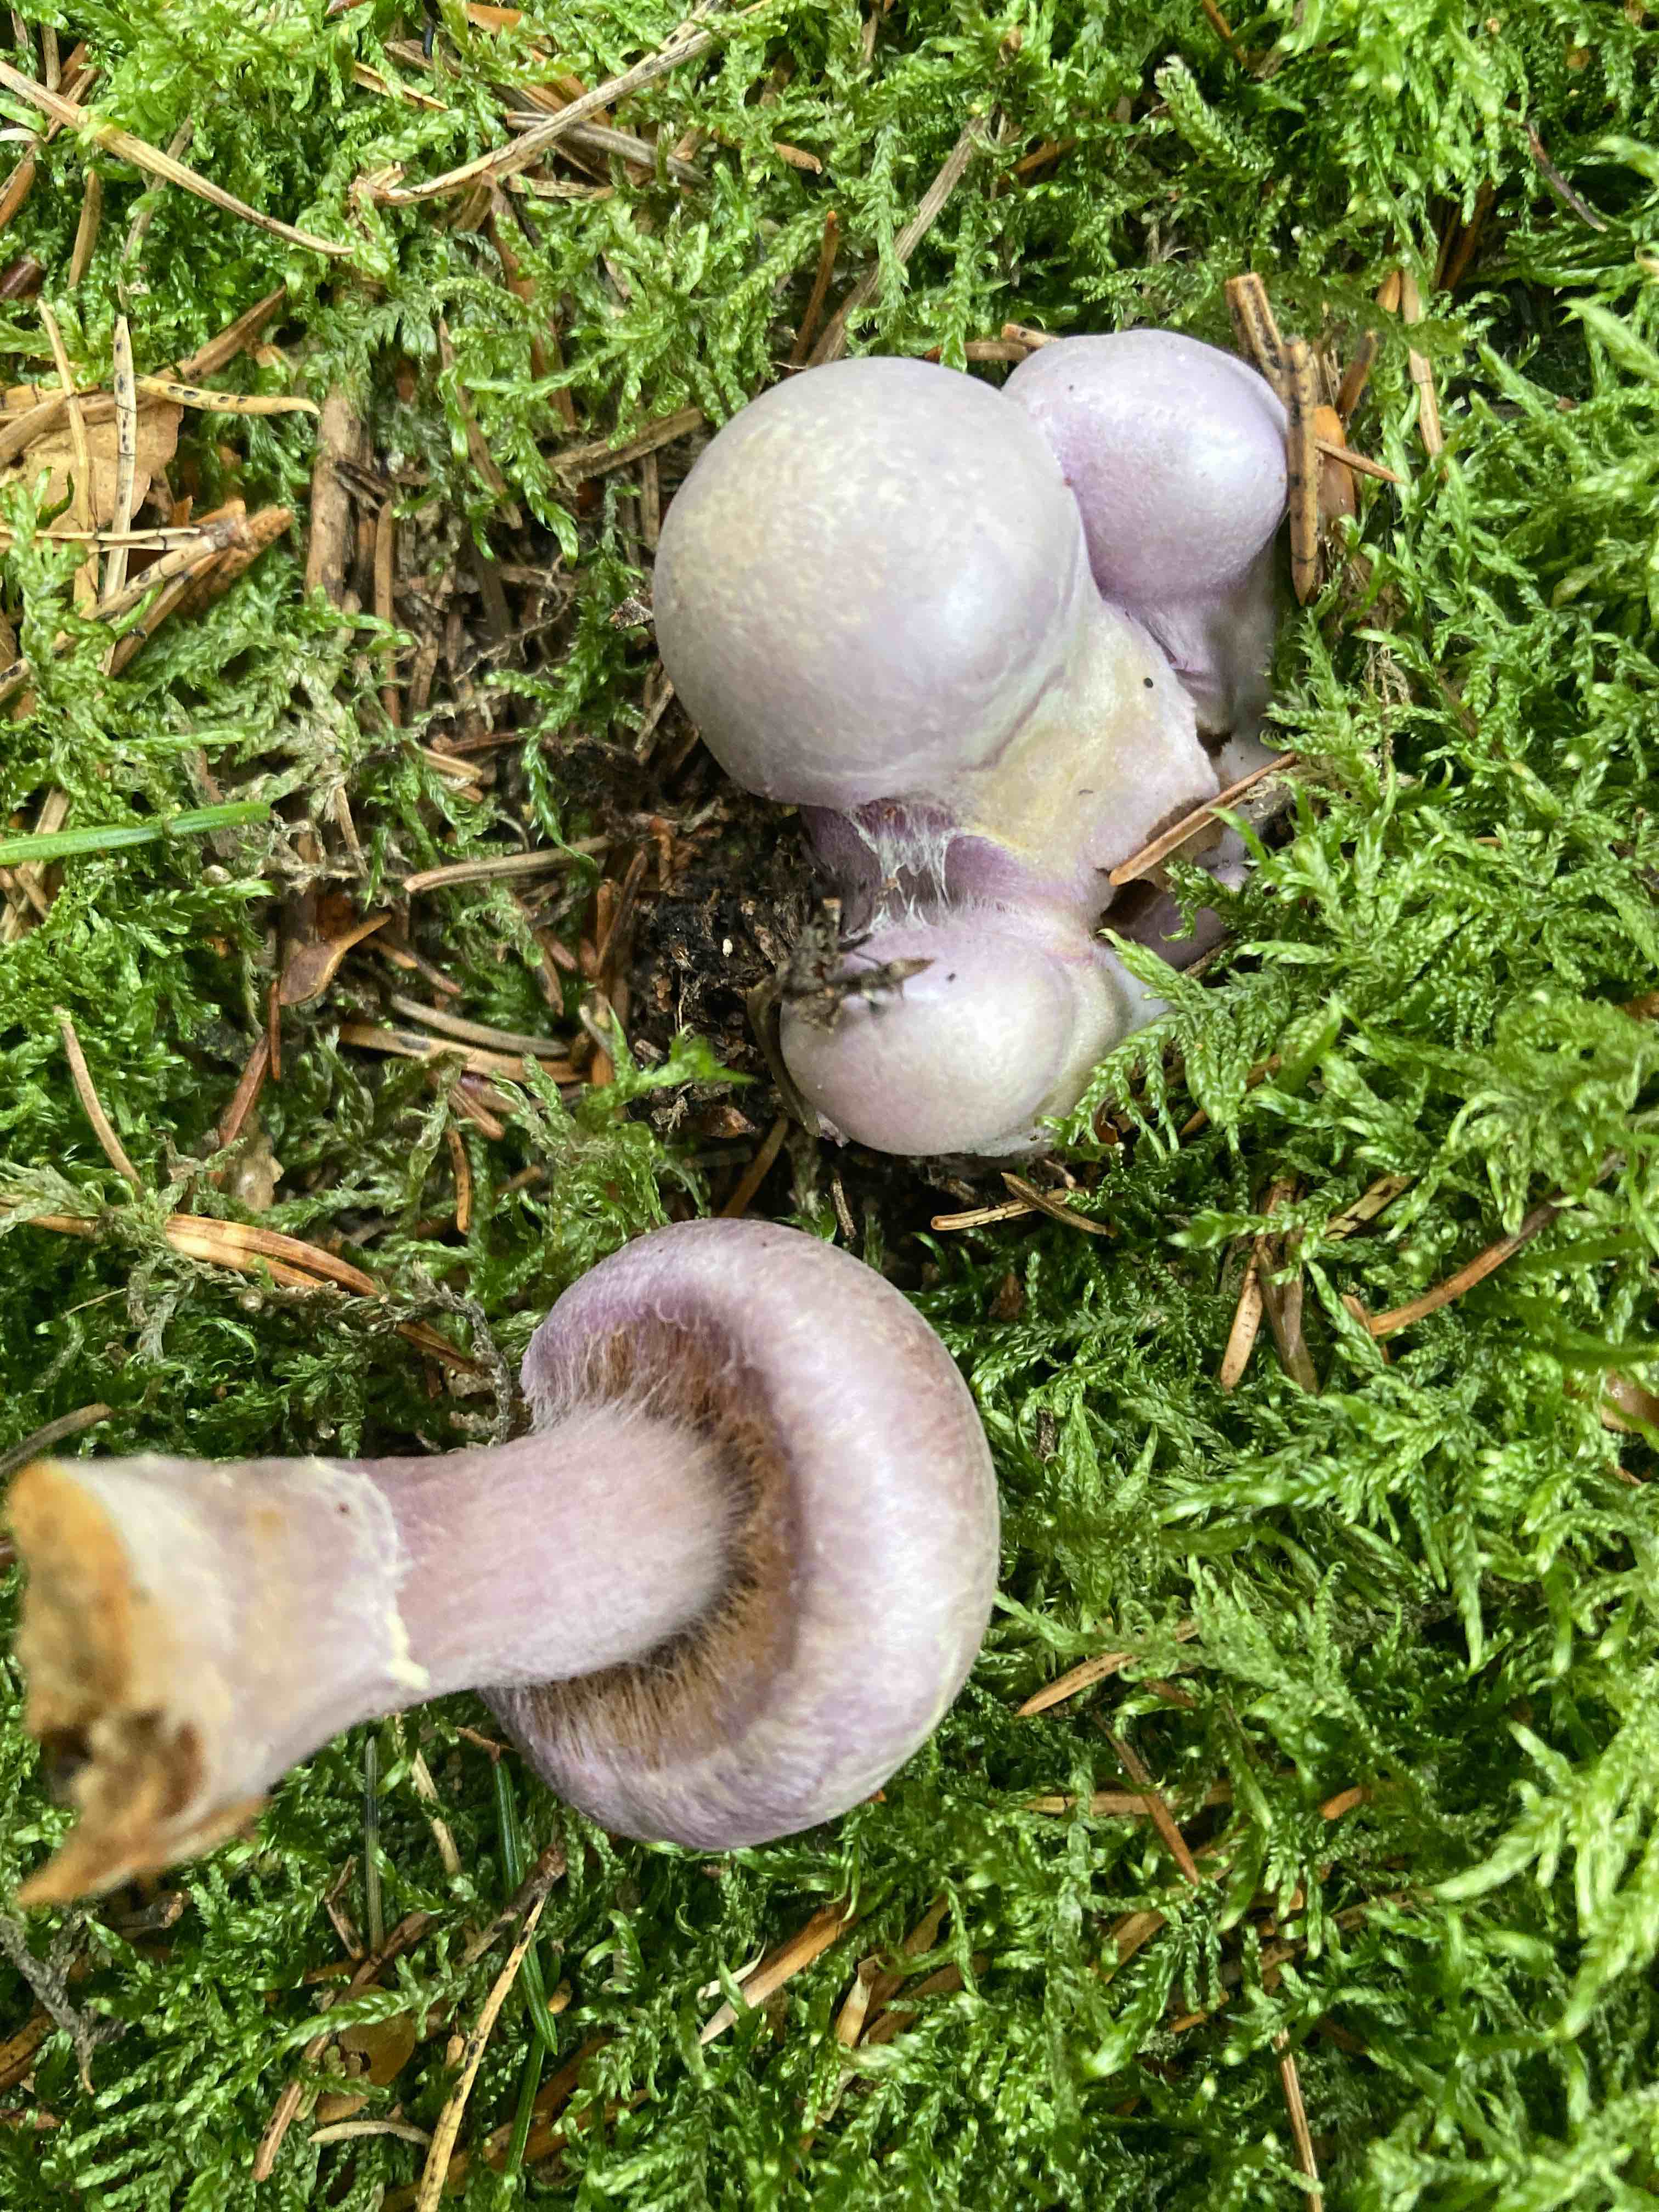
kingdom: Fungi
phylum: Basidiomycota
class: Agaricomycetes
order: Agaricales
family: Cortinariaceae
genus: Cortinarius
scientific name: Cortinarius traganus
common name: safrankødet slørhat
